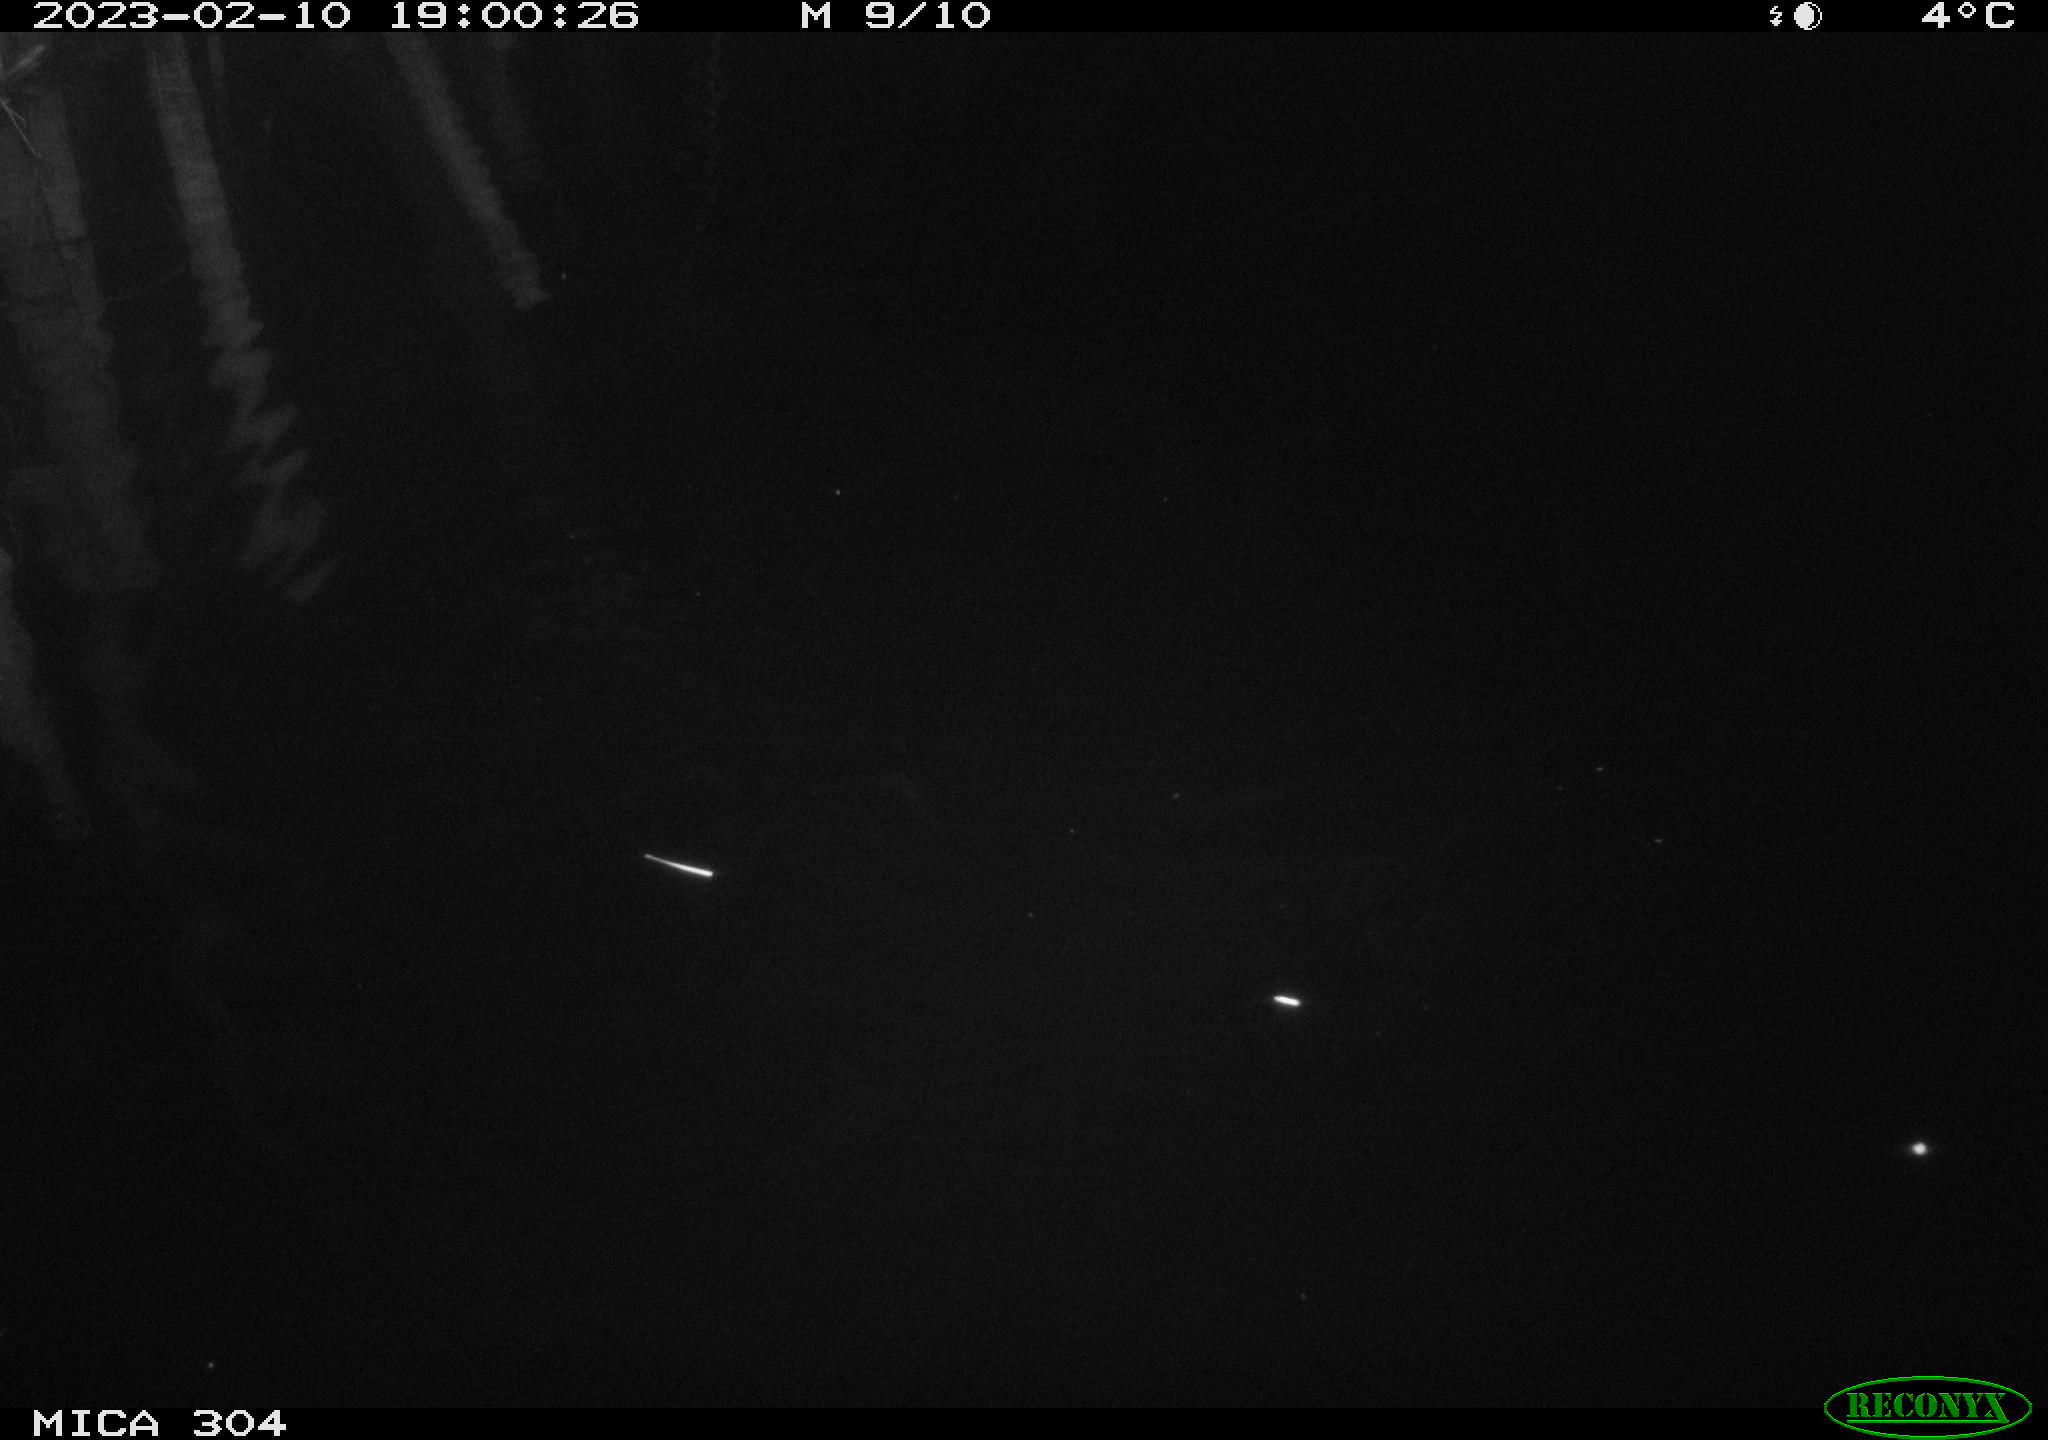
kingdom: Animalia
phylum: Chordata
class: Aves
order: Anseriformes
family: Anatidae
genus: Anas
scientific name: Anas
